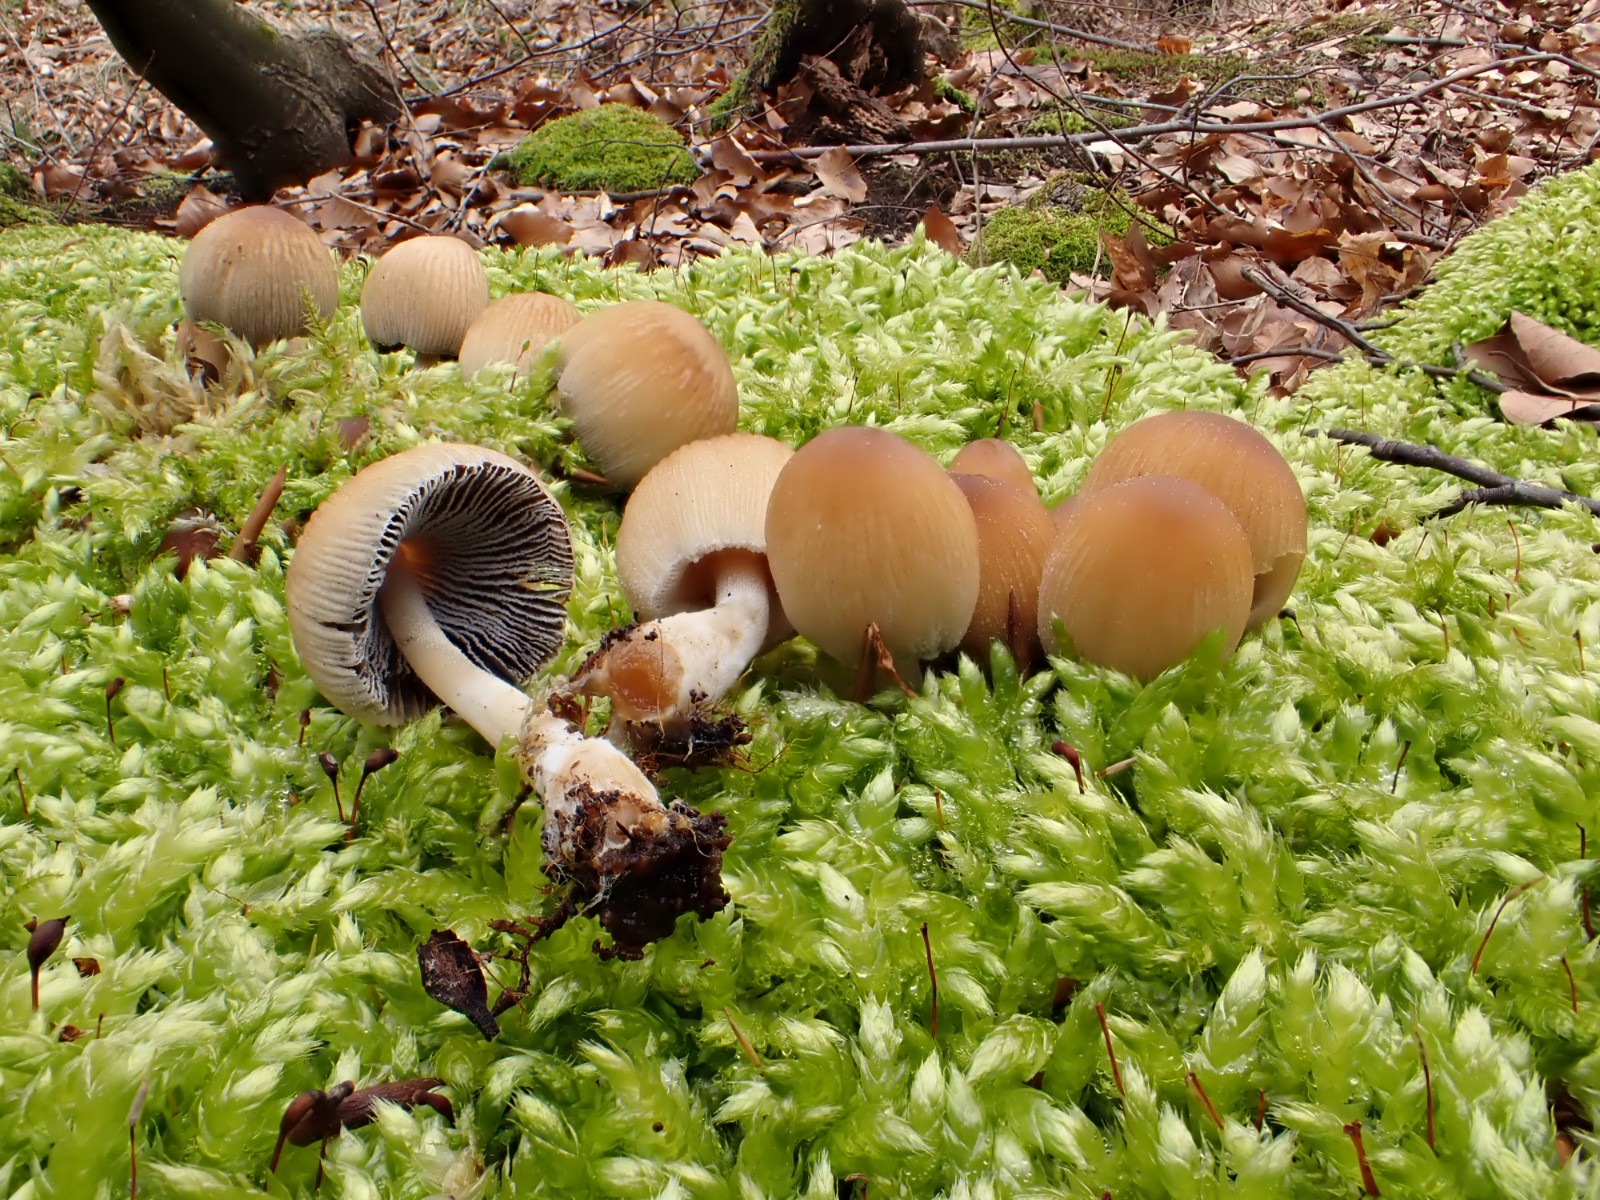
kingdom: Fungi
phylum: Basidiomycota
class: Agaricomycetes
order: Agaricales
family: Psathyrellaceae
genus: Coprinellus
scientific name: Coprinellus micaceus
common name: glimmer-blækhat
